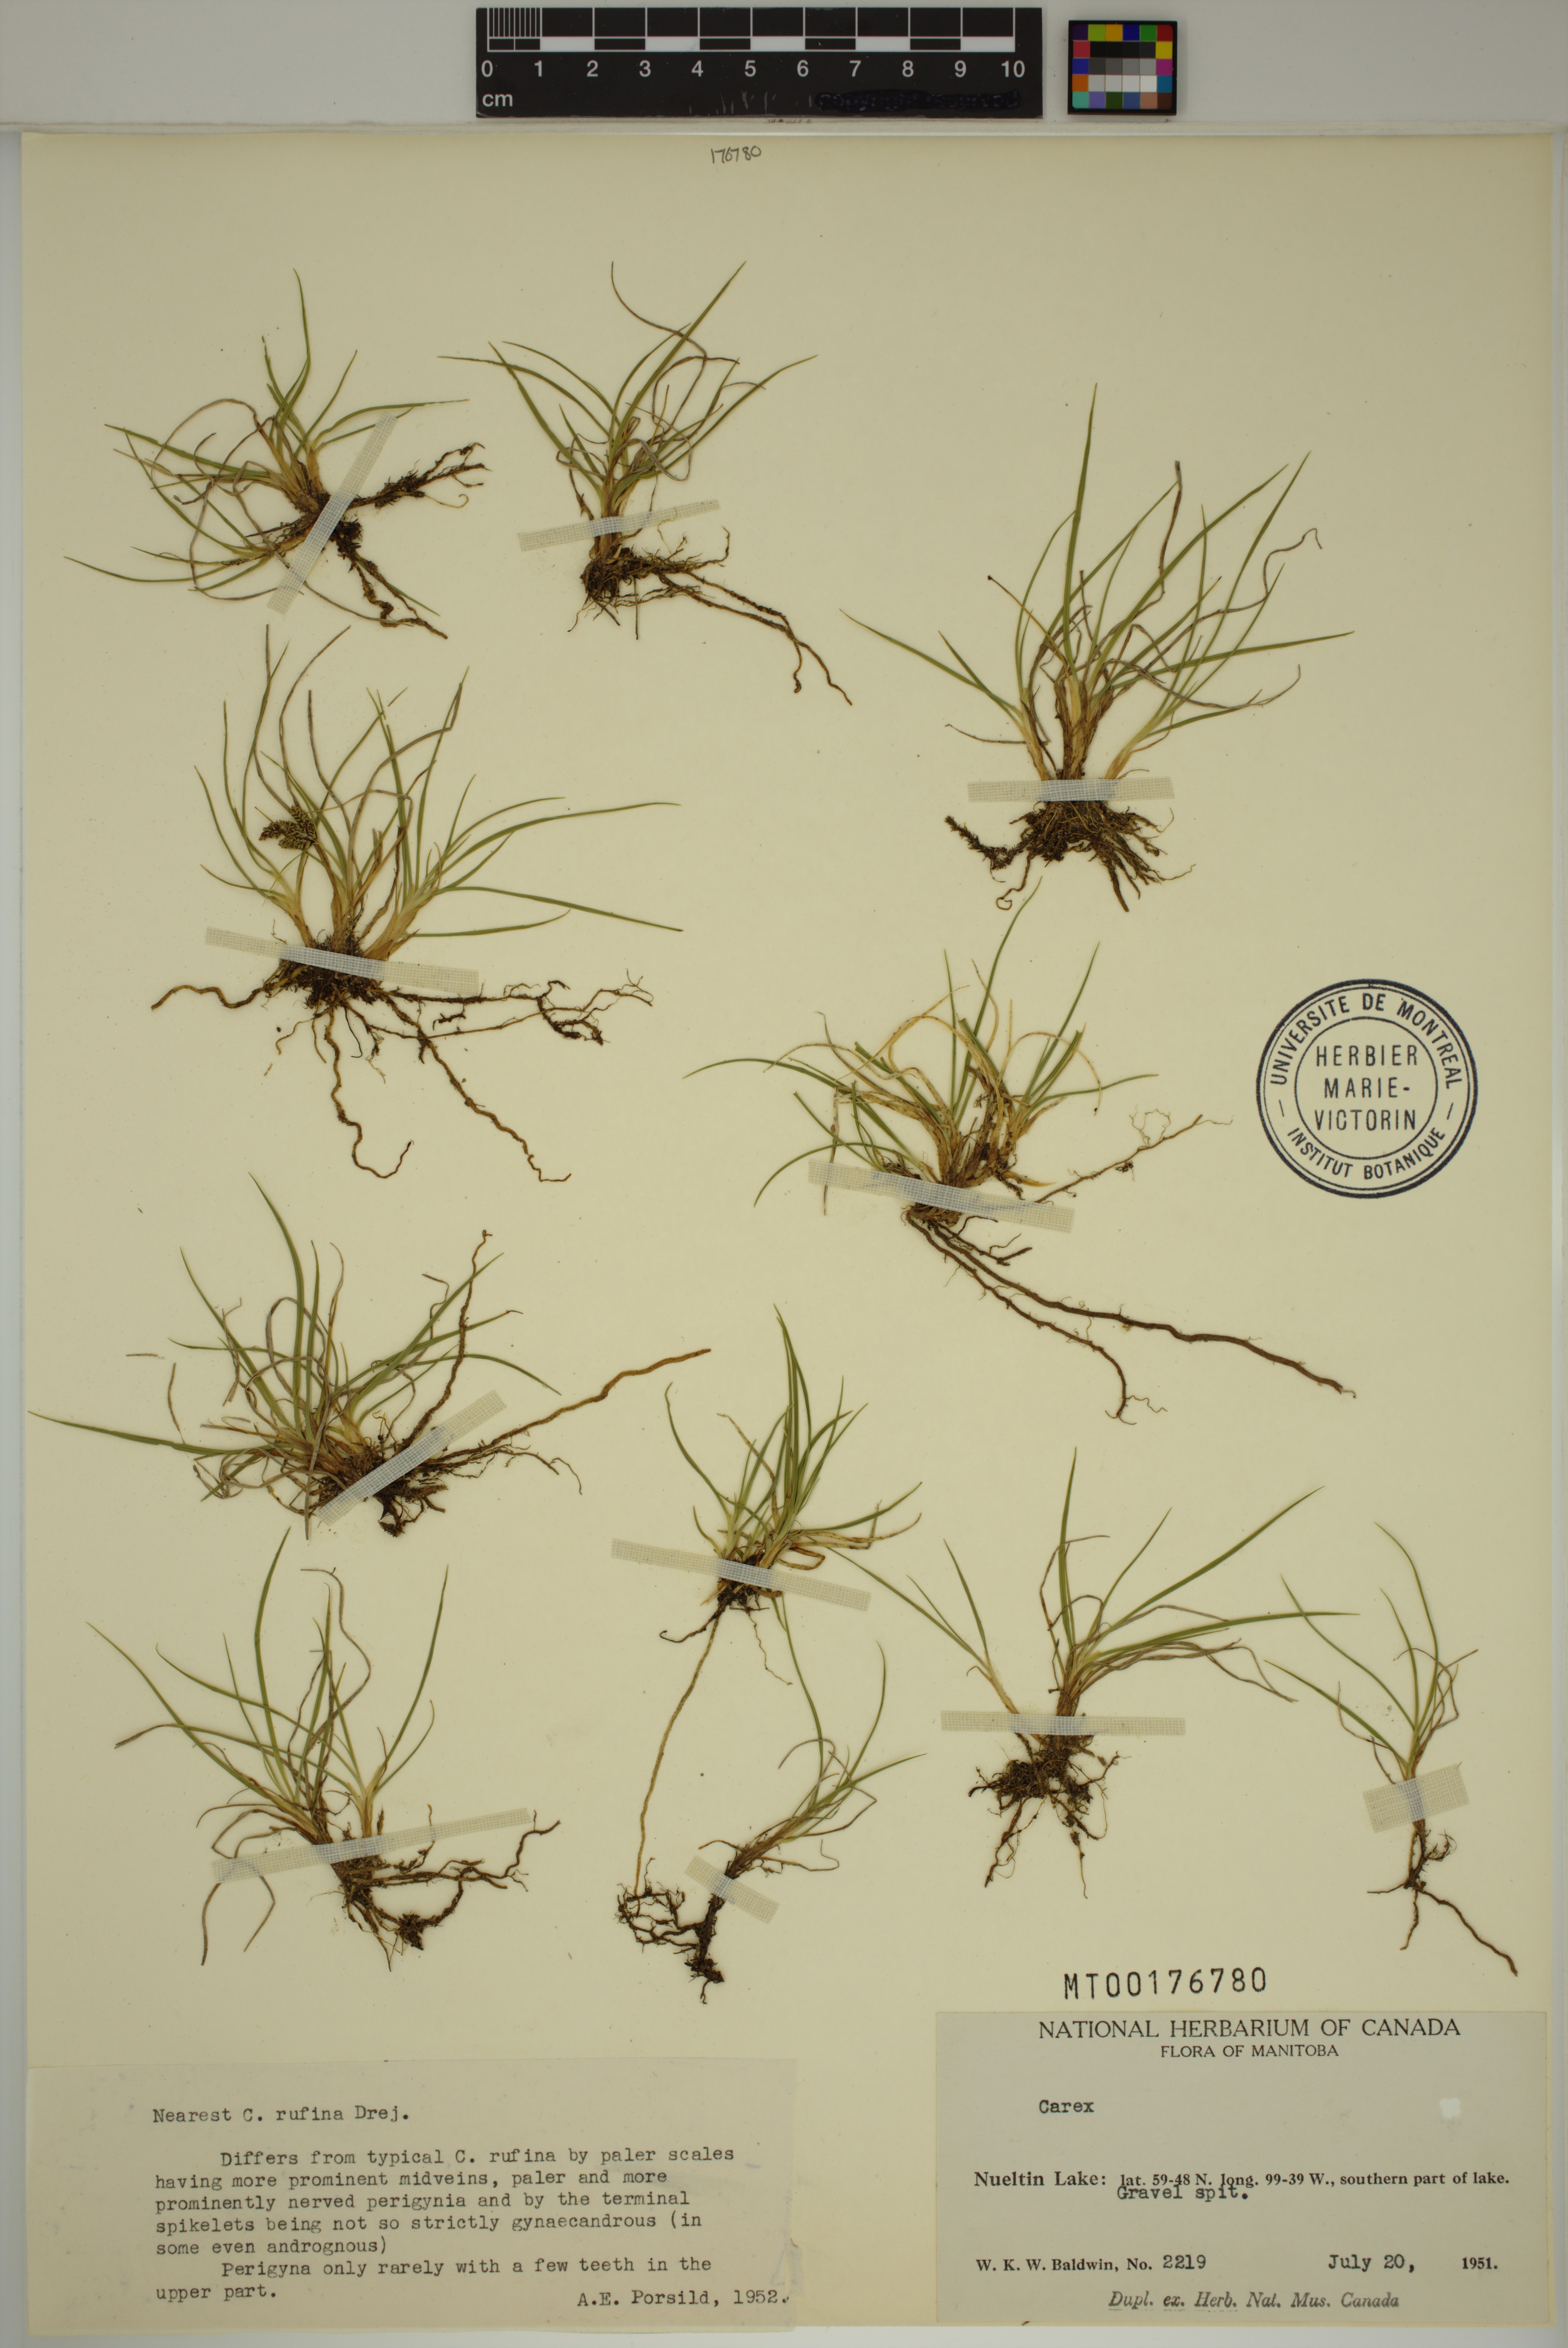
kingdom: Plantae
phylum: Tracheophyta
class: Liliopsida
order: Poales
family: Cyperaceae
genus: Carex
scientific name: Carex rufina
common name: Reddish sedge
